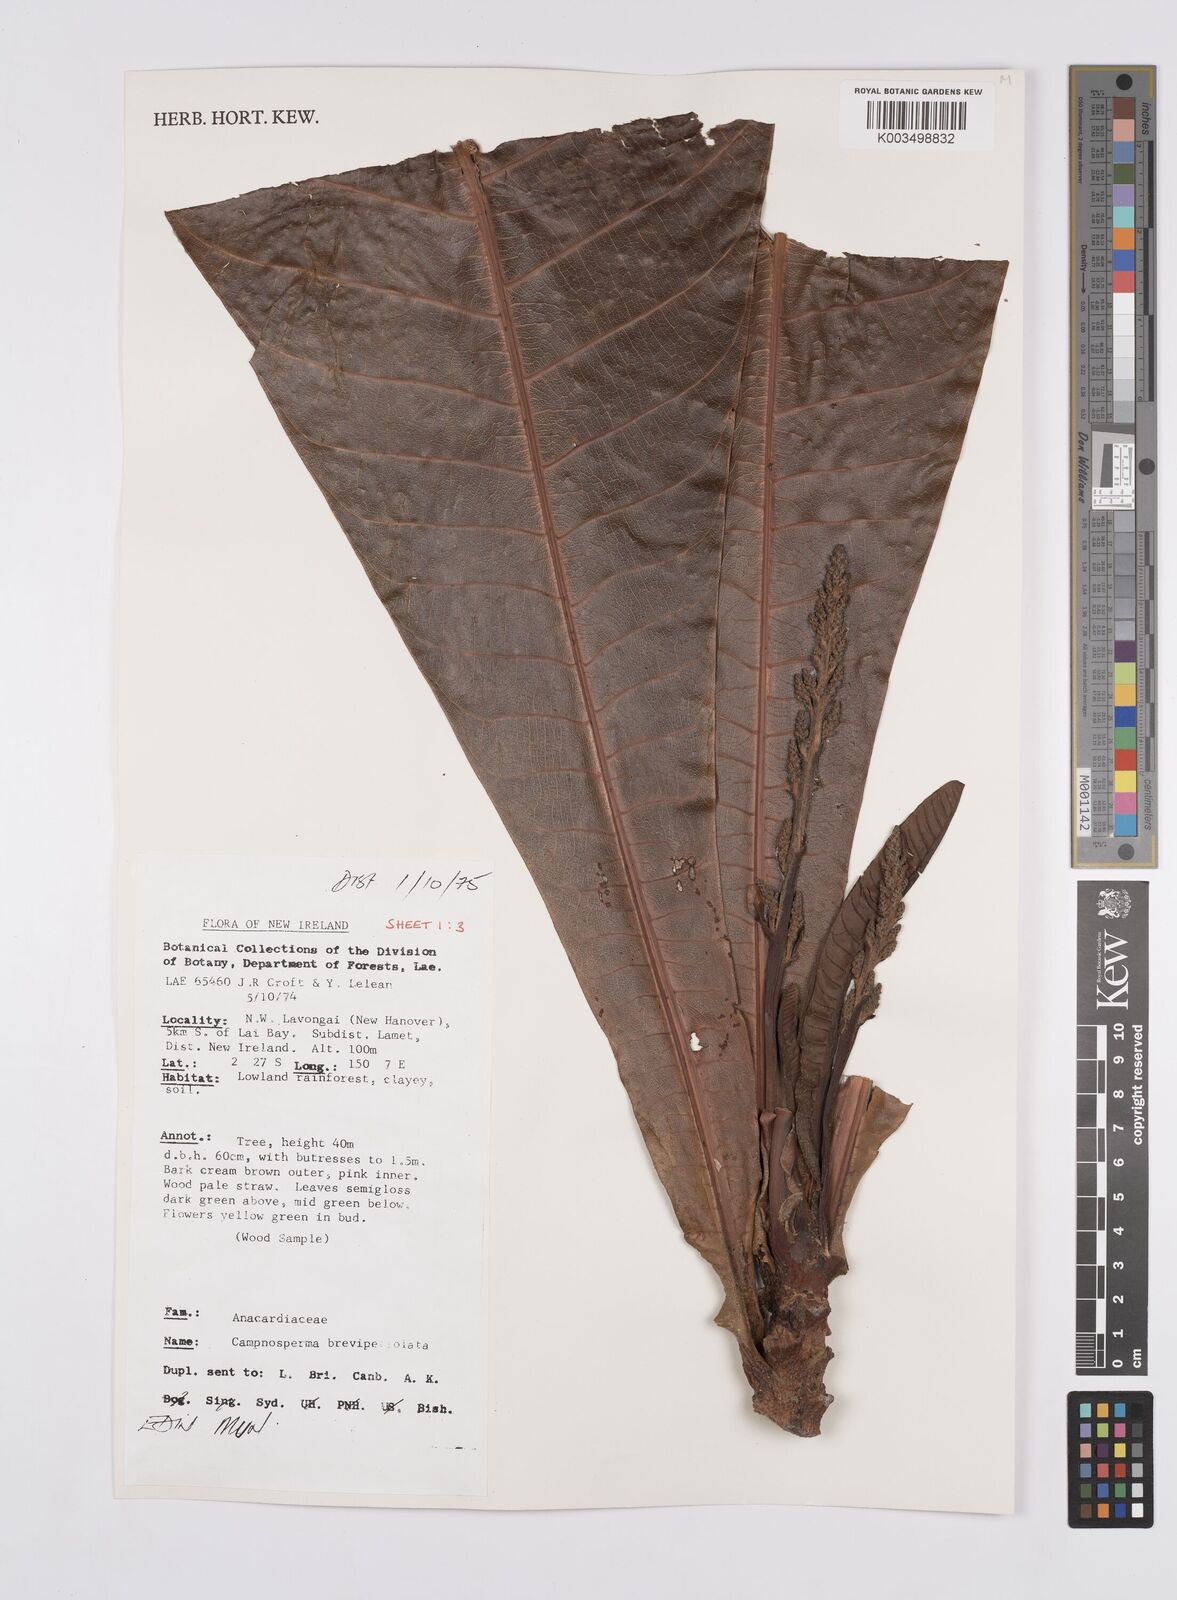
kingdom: Plantae
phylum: Tracheophyta
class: Magnoliopsida
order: Sapindales
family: Anacardiaceae
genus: Campnosperma
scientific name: Campnosperma brevipetiolatum
